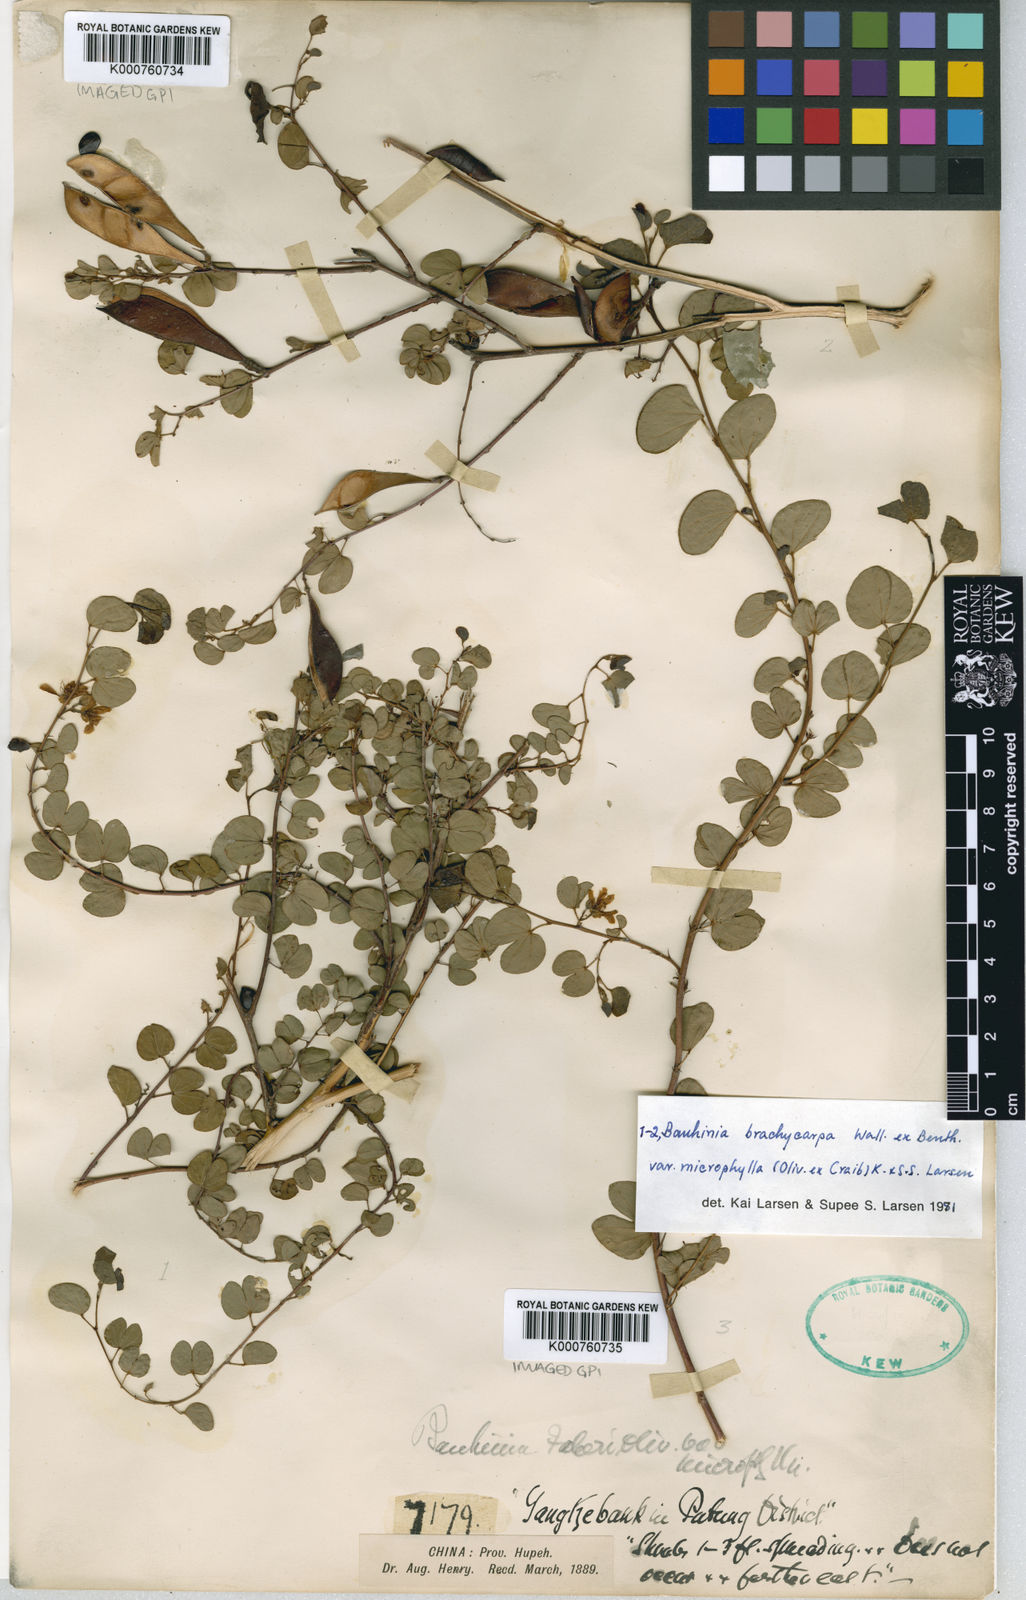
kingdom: Plantae
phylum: Tracheophyta
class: Magnoliopsida
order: Fabales
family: Fabaceae
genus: Bauhinia
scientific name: Bauhinia brachycarpa
